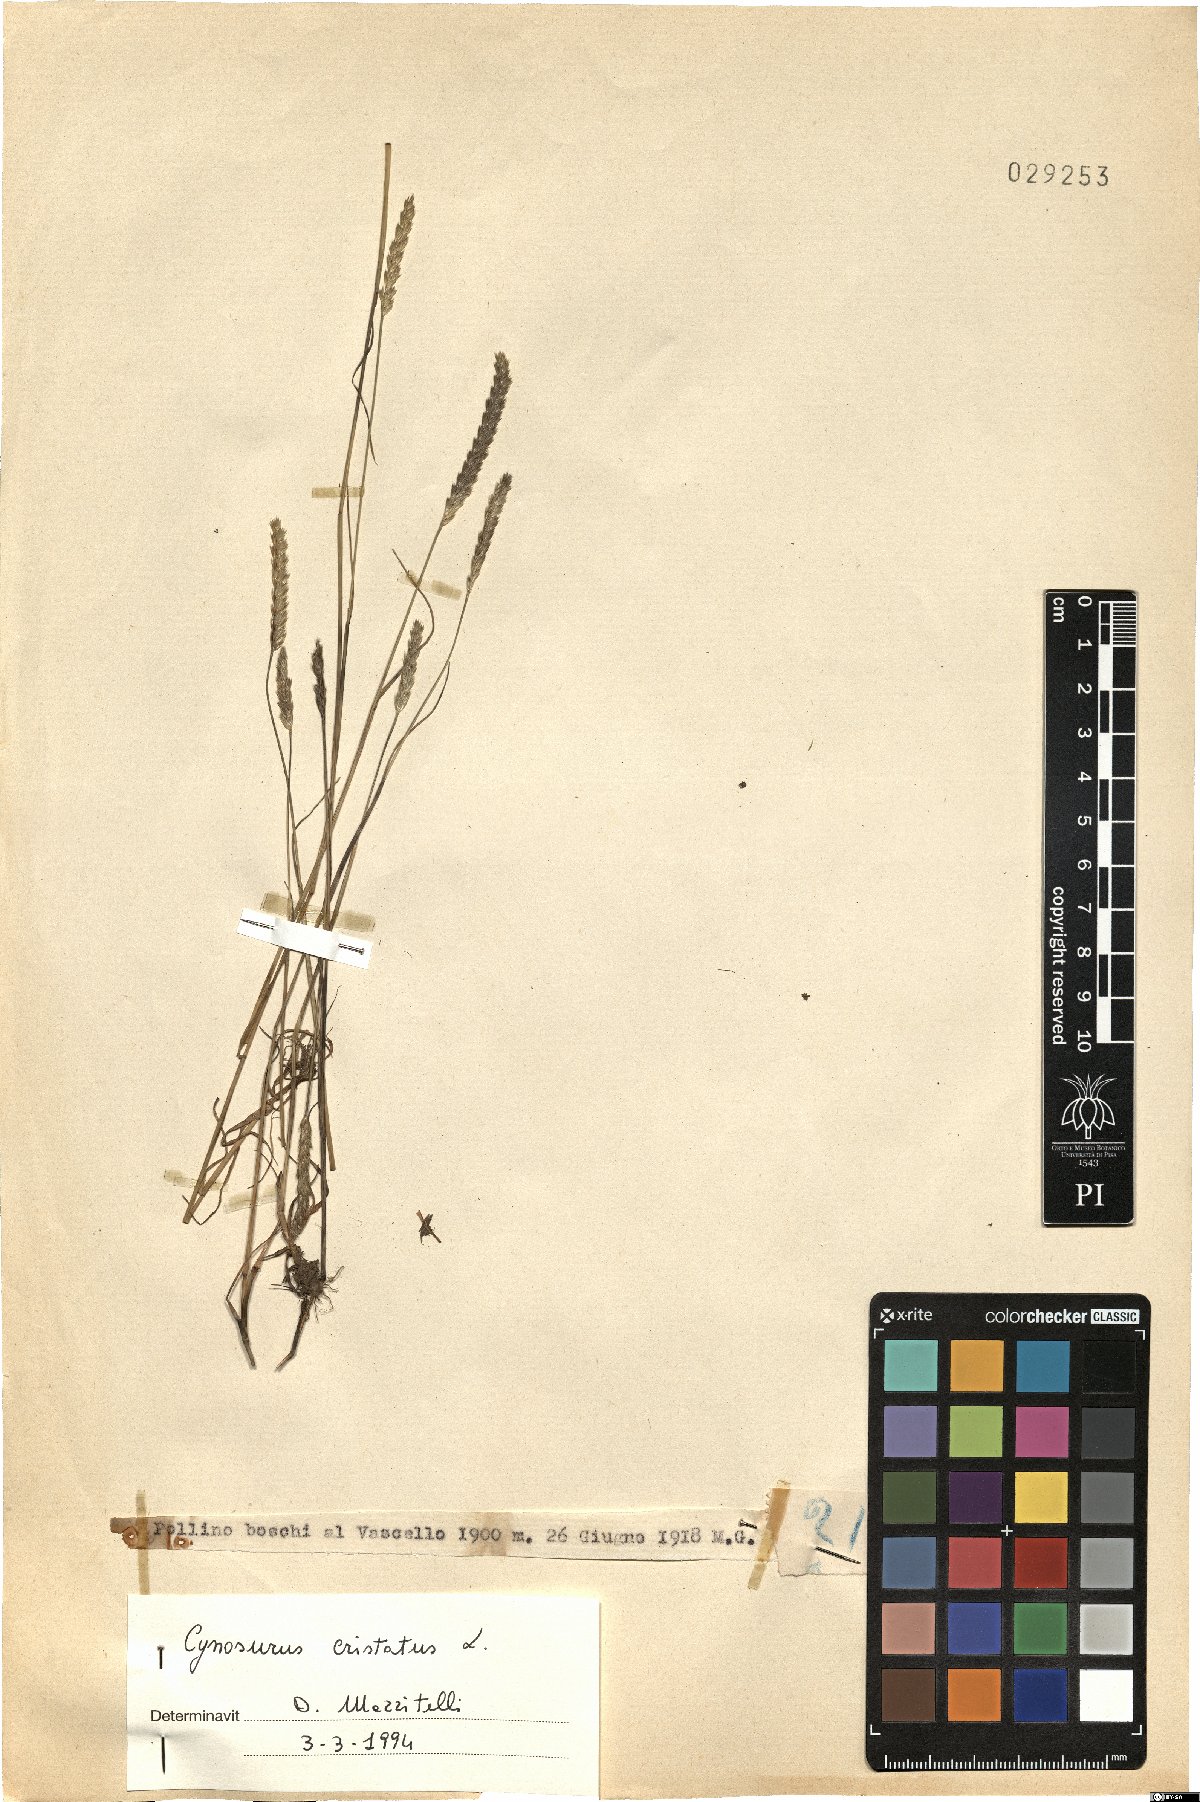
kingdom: Plantae
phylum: Tracheophyta
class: Liliopsida
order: Poales
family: Poaceae
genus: Cynosurus
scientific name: Cynosurus cristatus
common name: Crested dog's-tail
